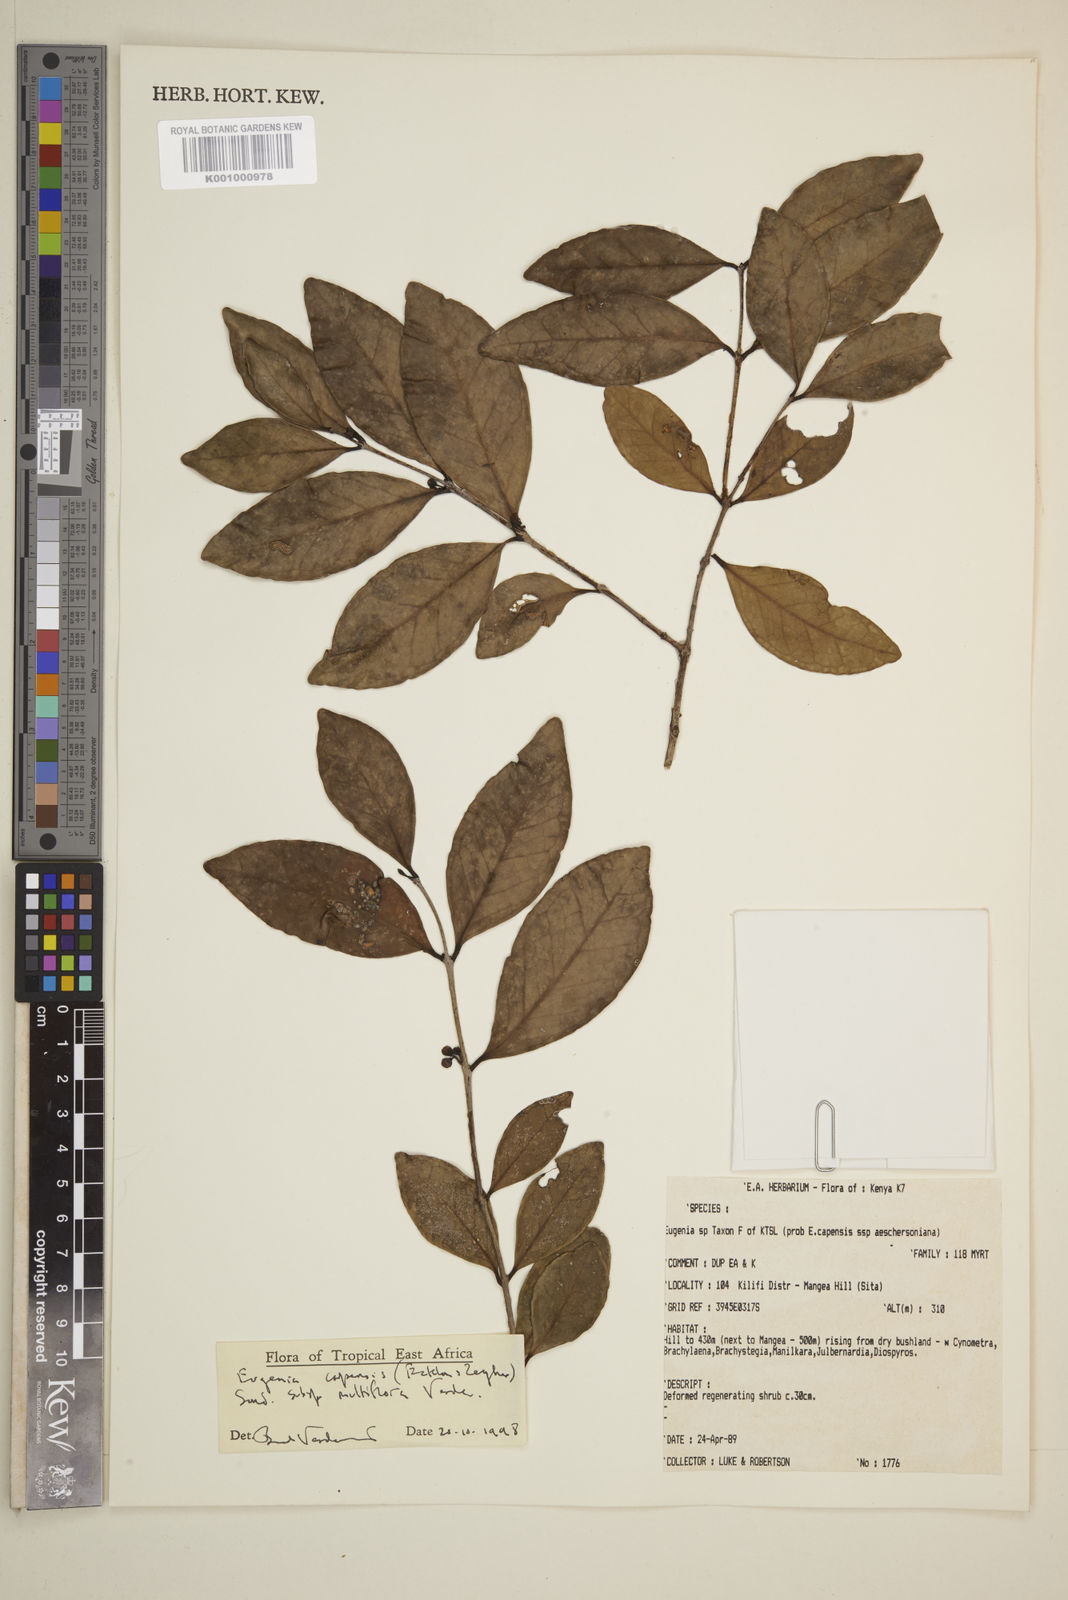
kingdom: Plantae
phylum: Tracheophyta
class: Magnoliopsida
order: Myrtales
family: Myrtaceae
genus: Eugenia
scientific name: Eugenia capensis
